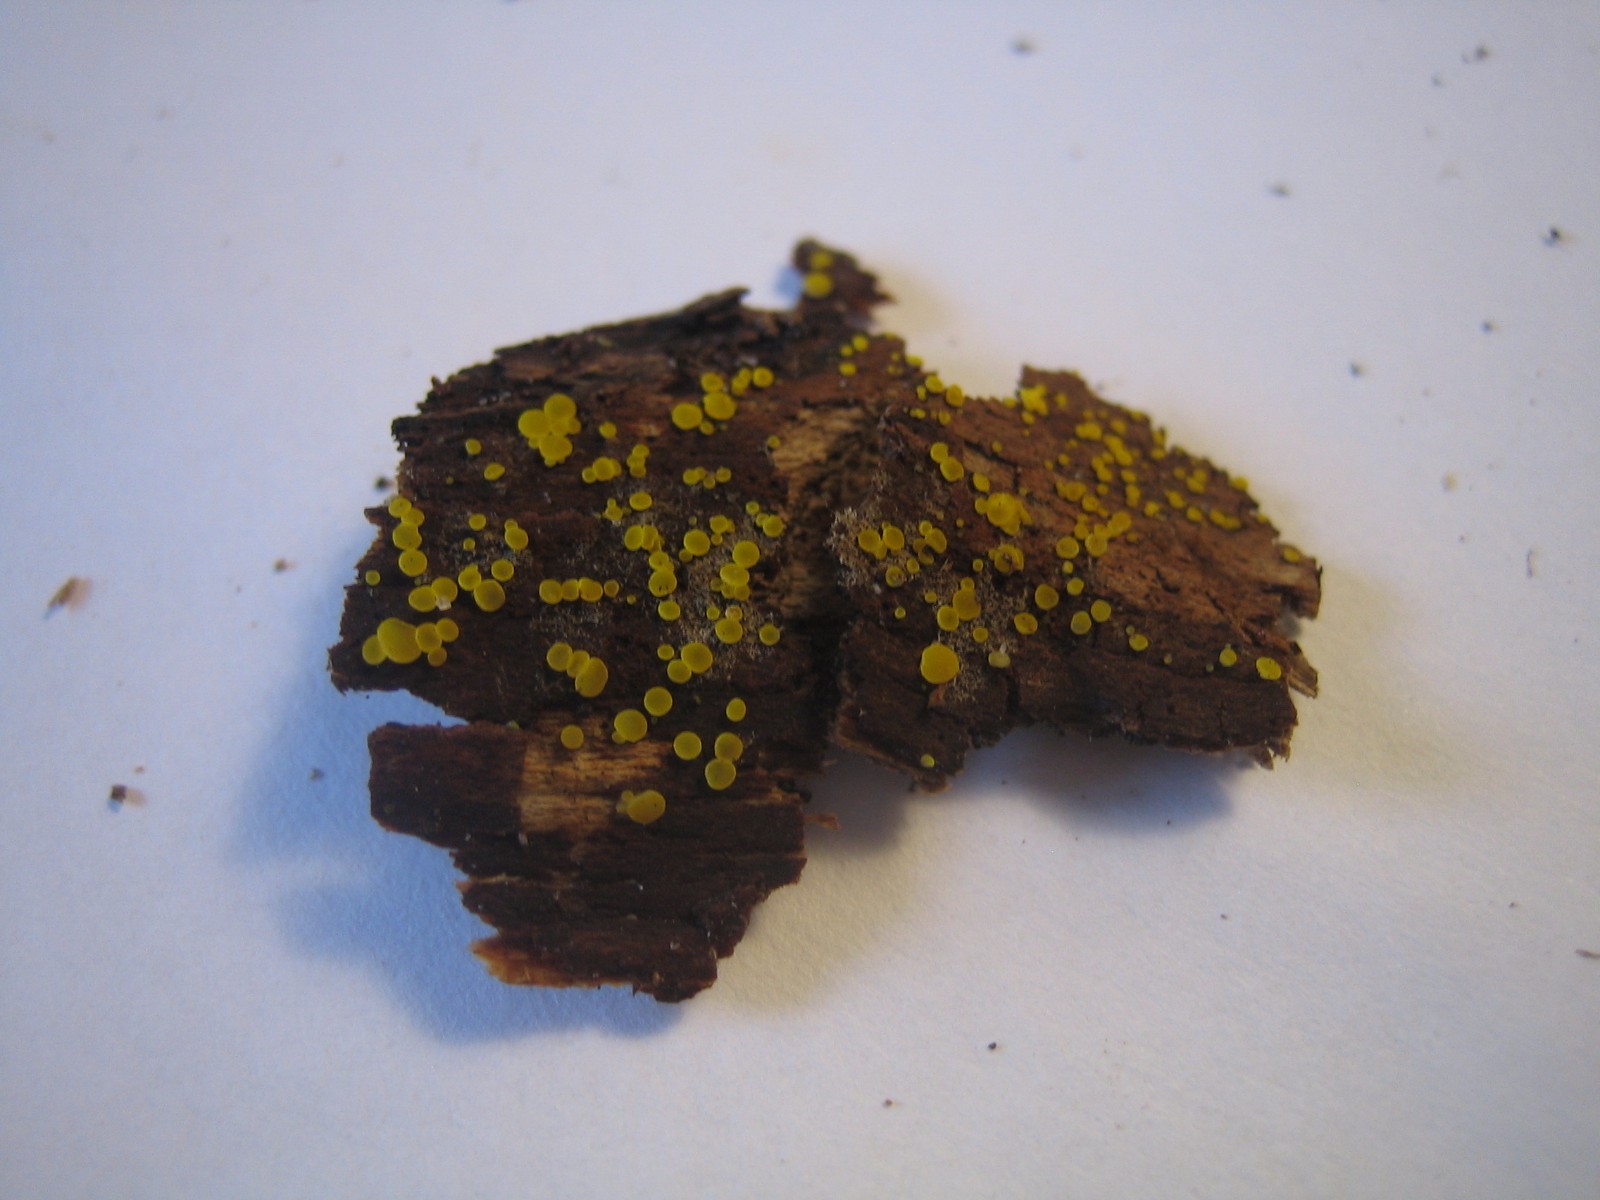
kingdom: Fungi
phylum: Ascomycota
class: Leotiomycetes
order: Helotiales
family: Pezizellaceae
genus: Calycina
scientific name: Calycina claroflava
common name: snyltende gulskive
